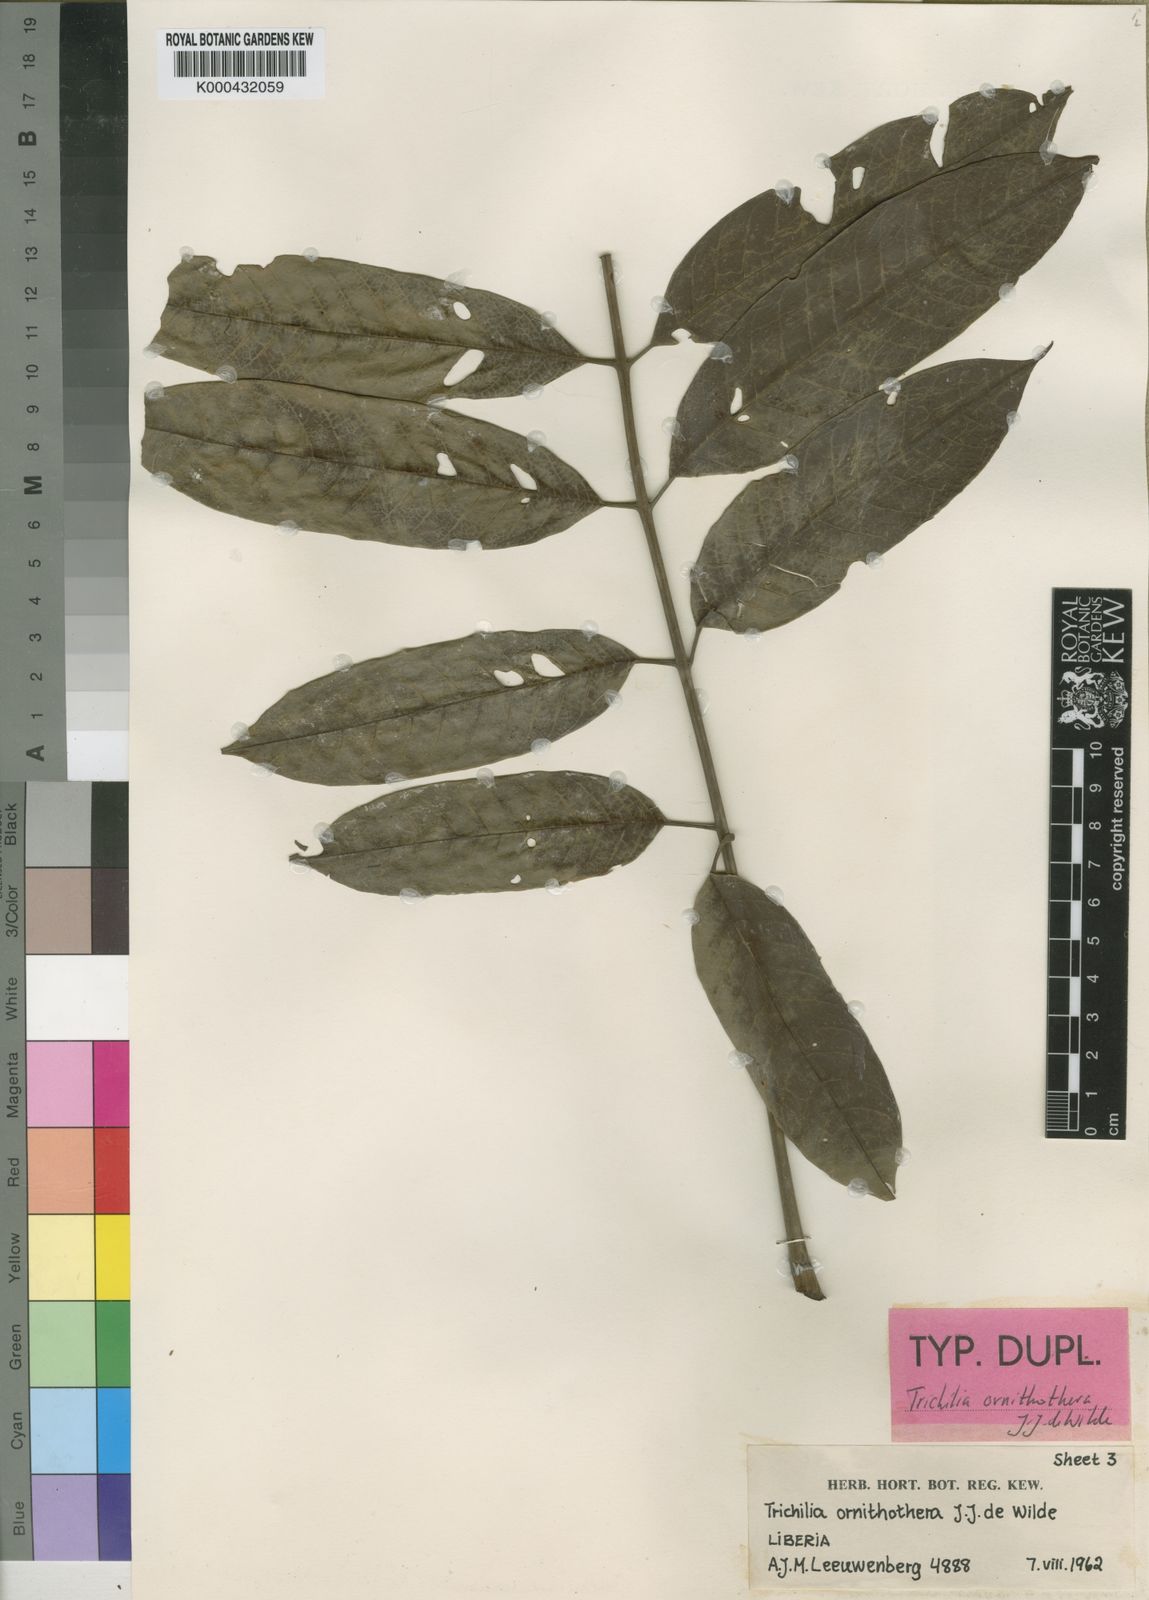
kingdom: Plantae
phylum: Tracheophyta
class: Magnoliopsida
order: Sapindales
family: Meliaceae
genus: Trichilia
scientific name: Trichilia ornithothera
